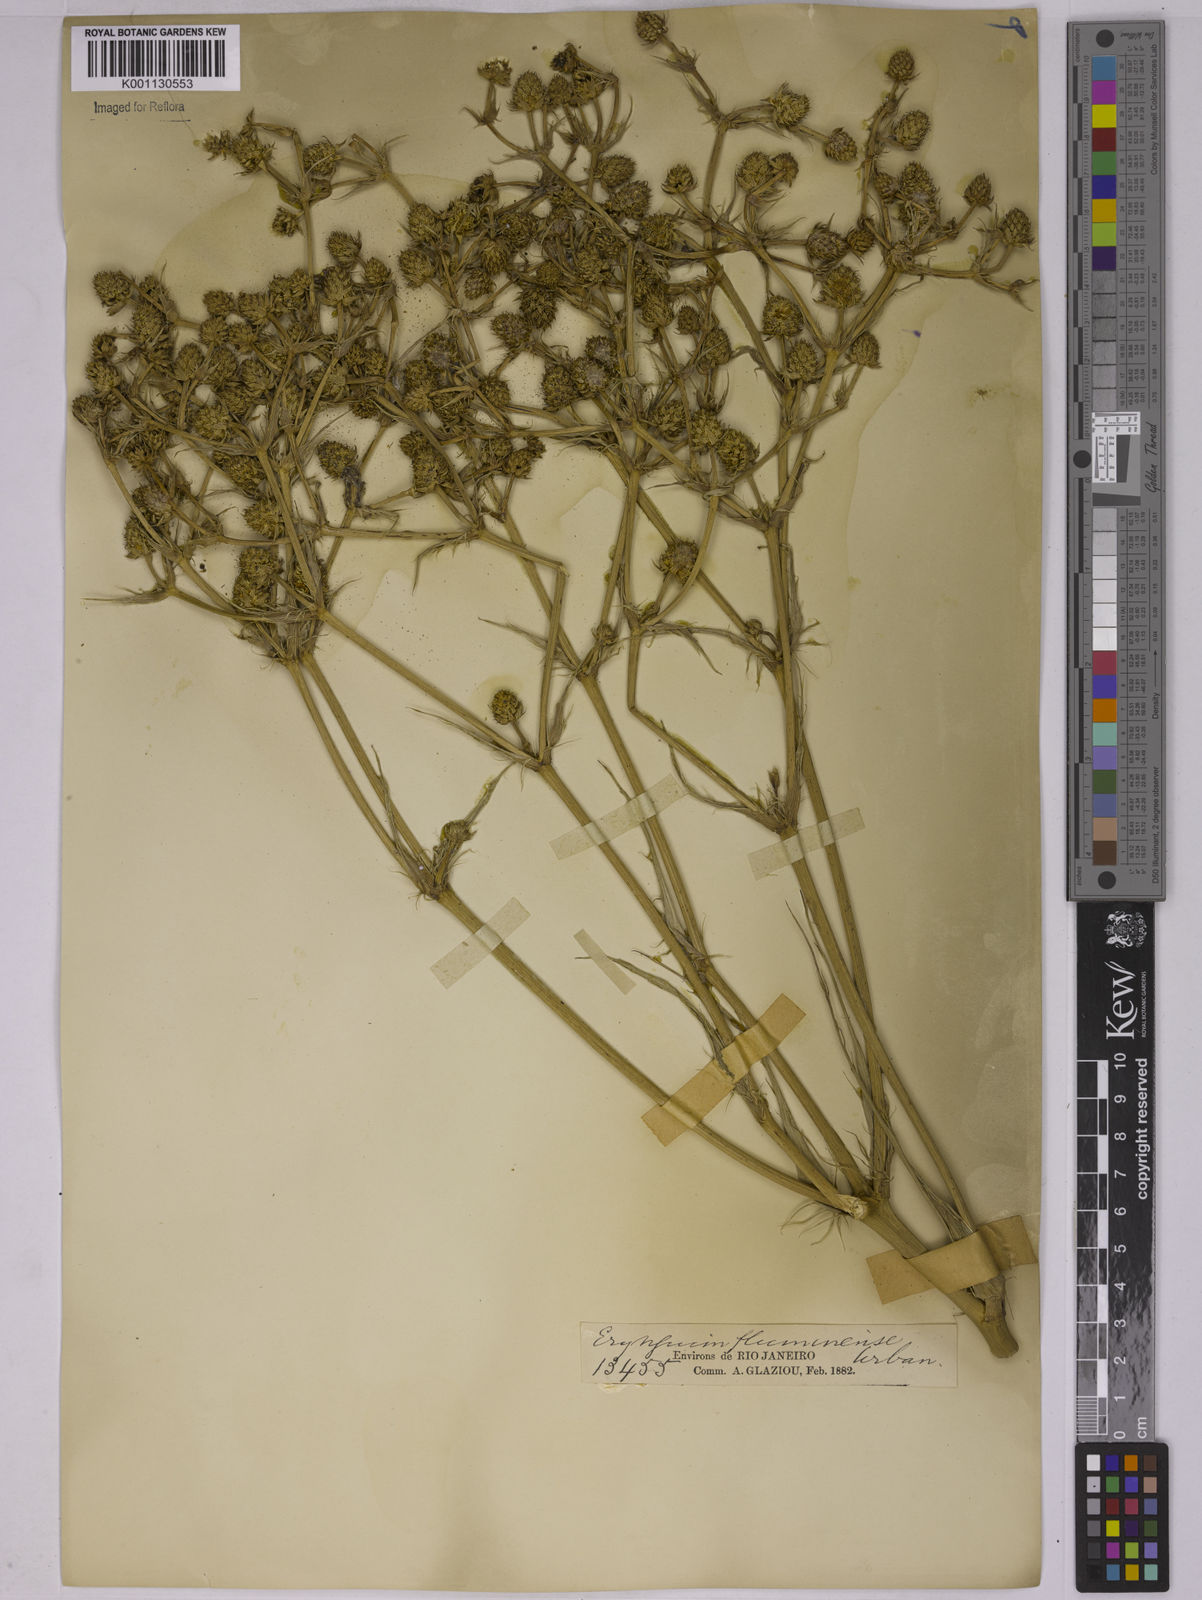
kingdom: Plantae
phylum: Tracheophyta
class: Magnoliopsida
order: Apiales
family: Apiaceae
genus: Eryngium
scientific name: Eryngium fluminense
